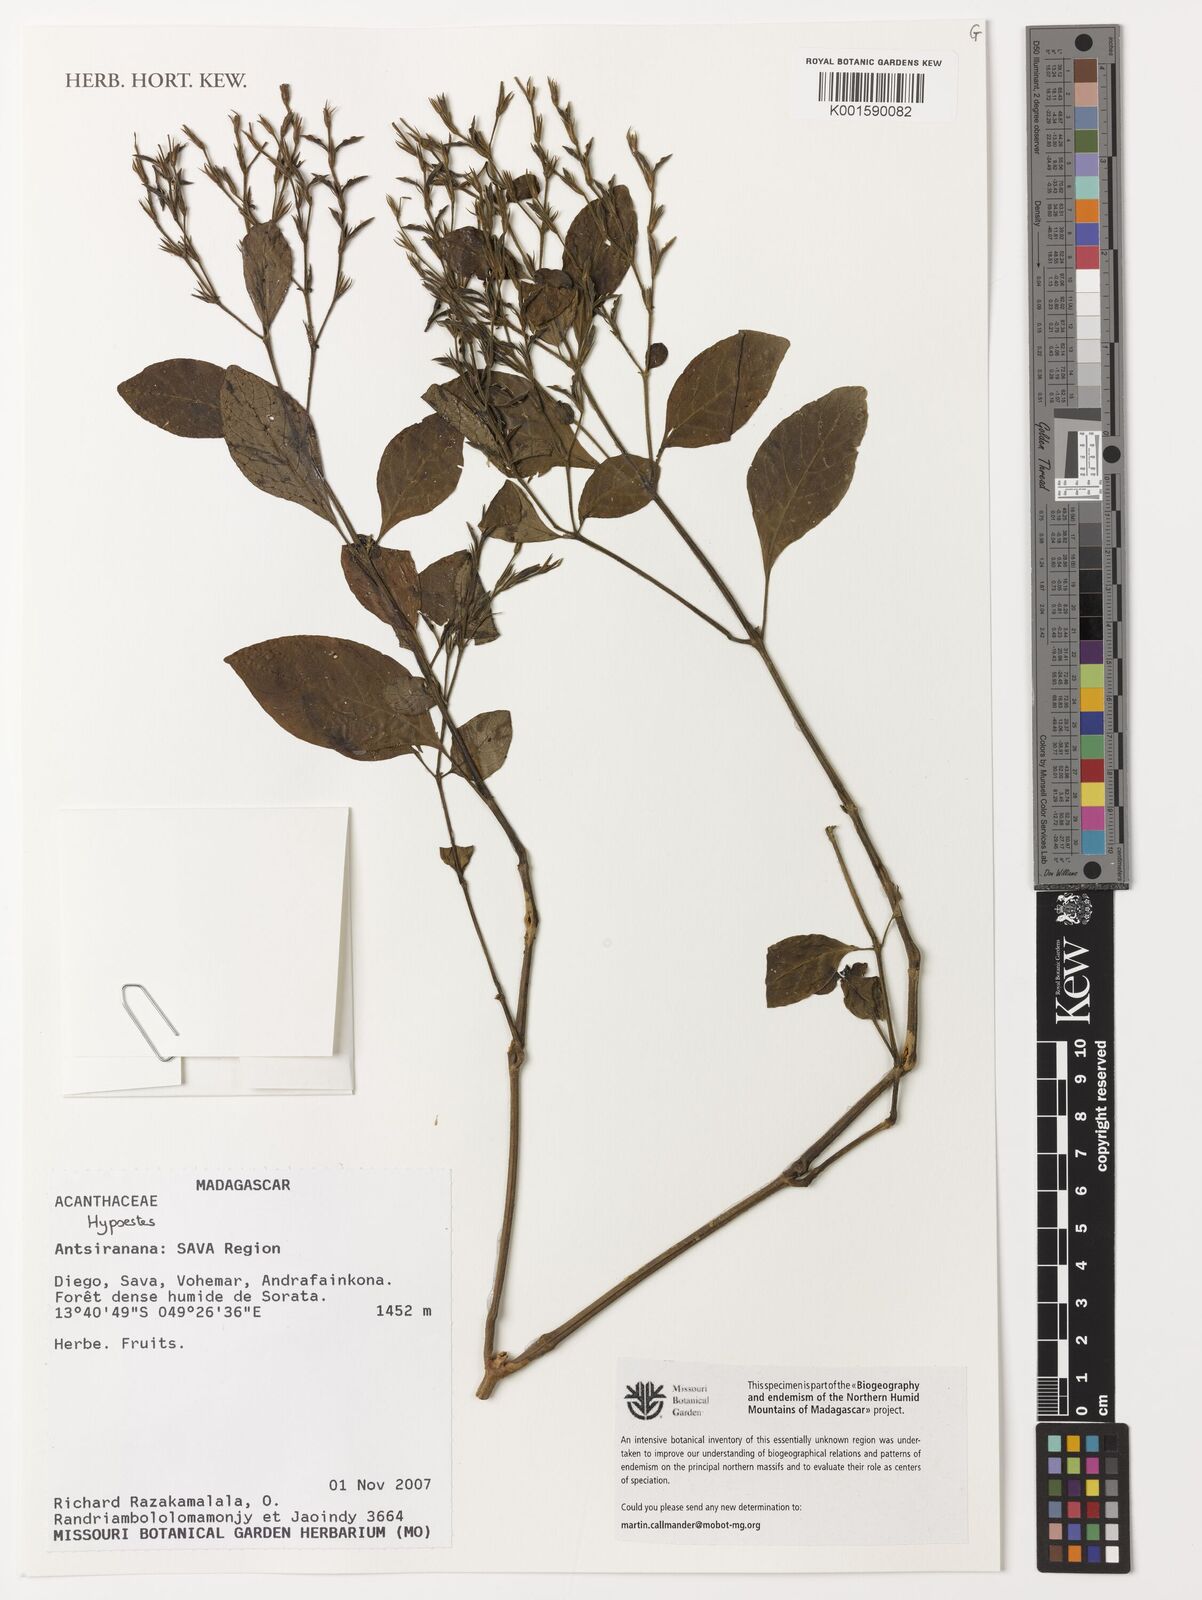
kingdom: Plantae
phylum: Tracheophyta
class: Magnoliopsida
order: Lamiales
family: Acanthaceae
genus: Hypoestes
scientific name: Hypoestes
